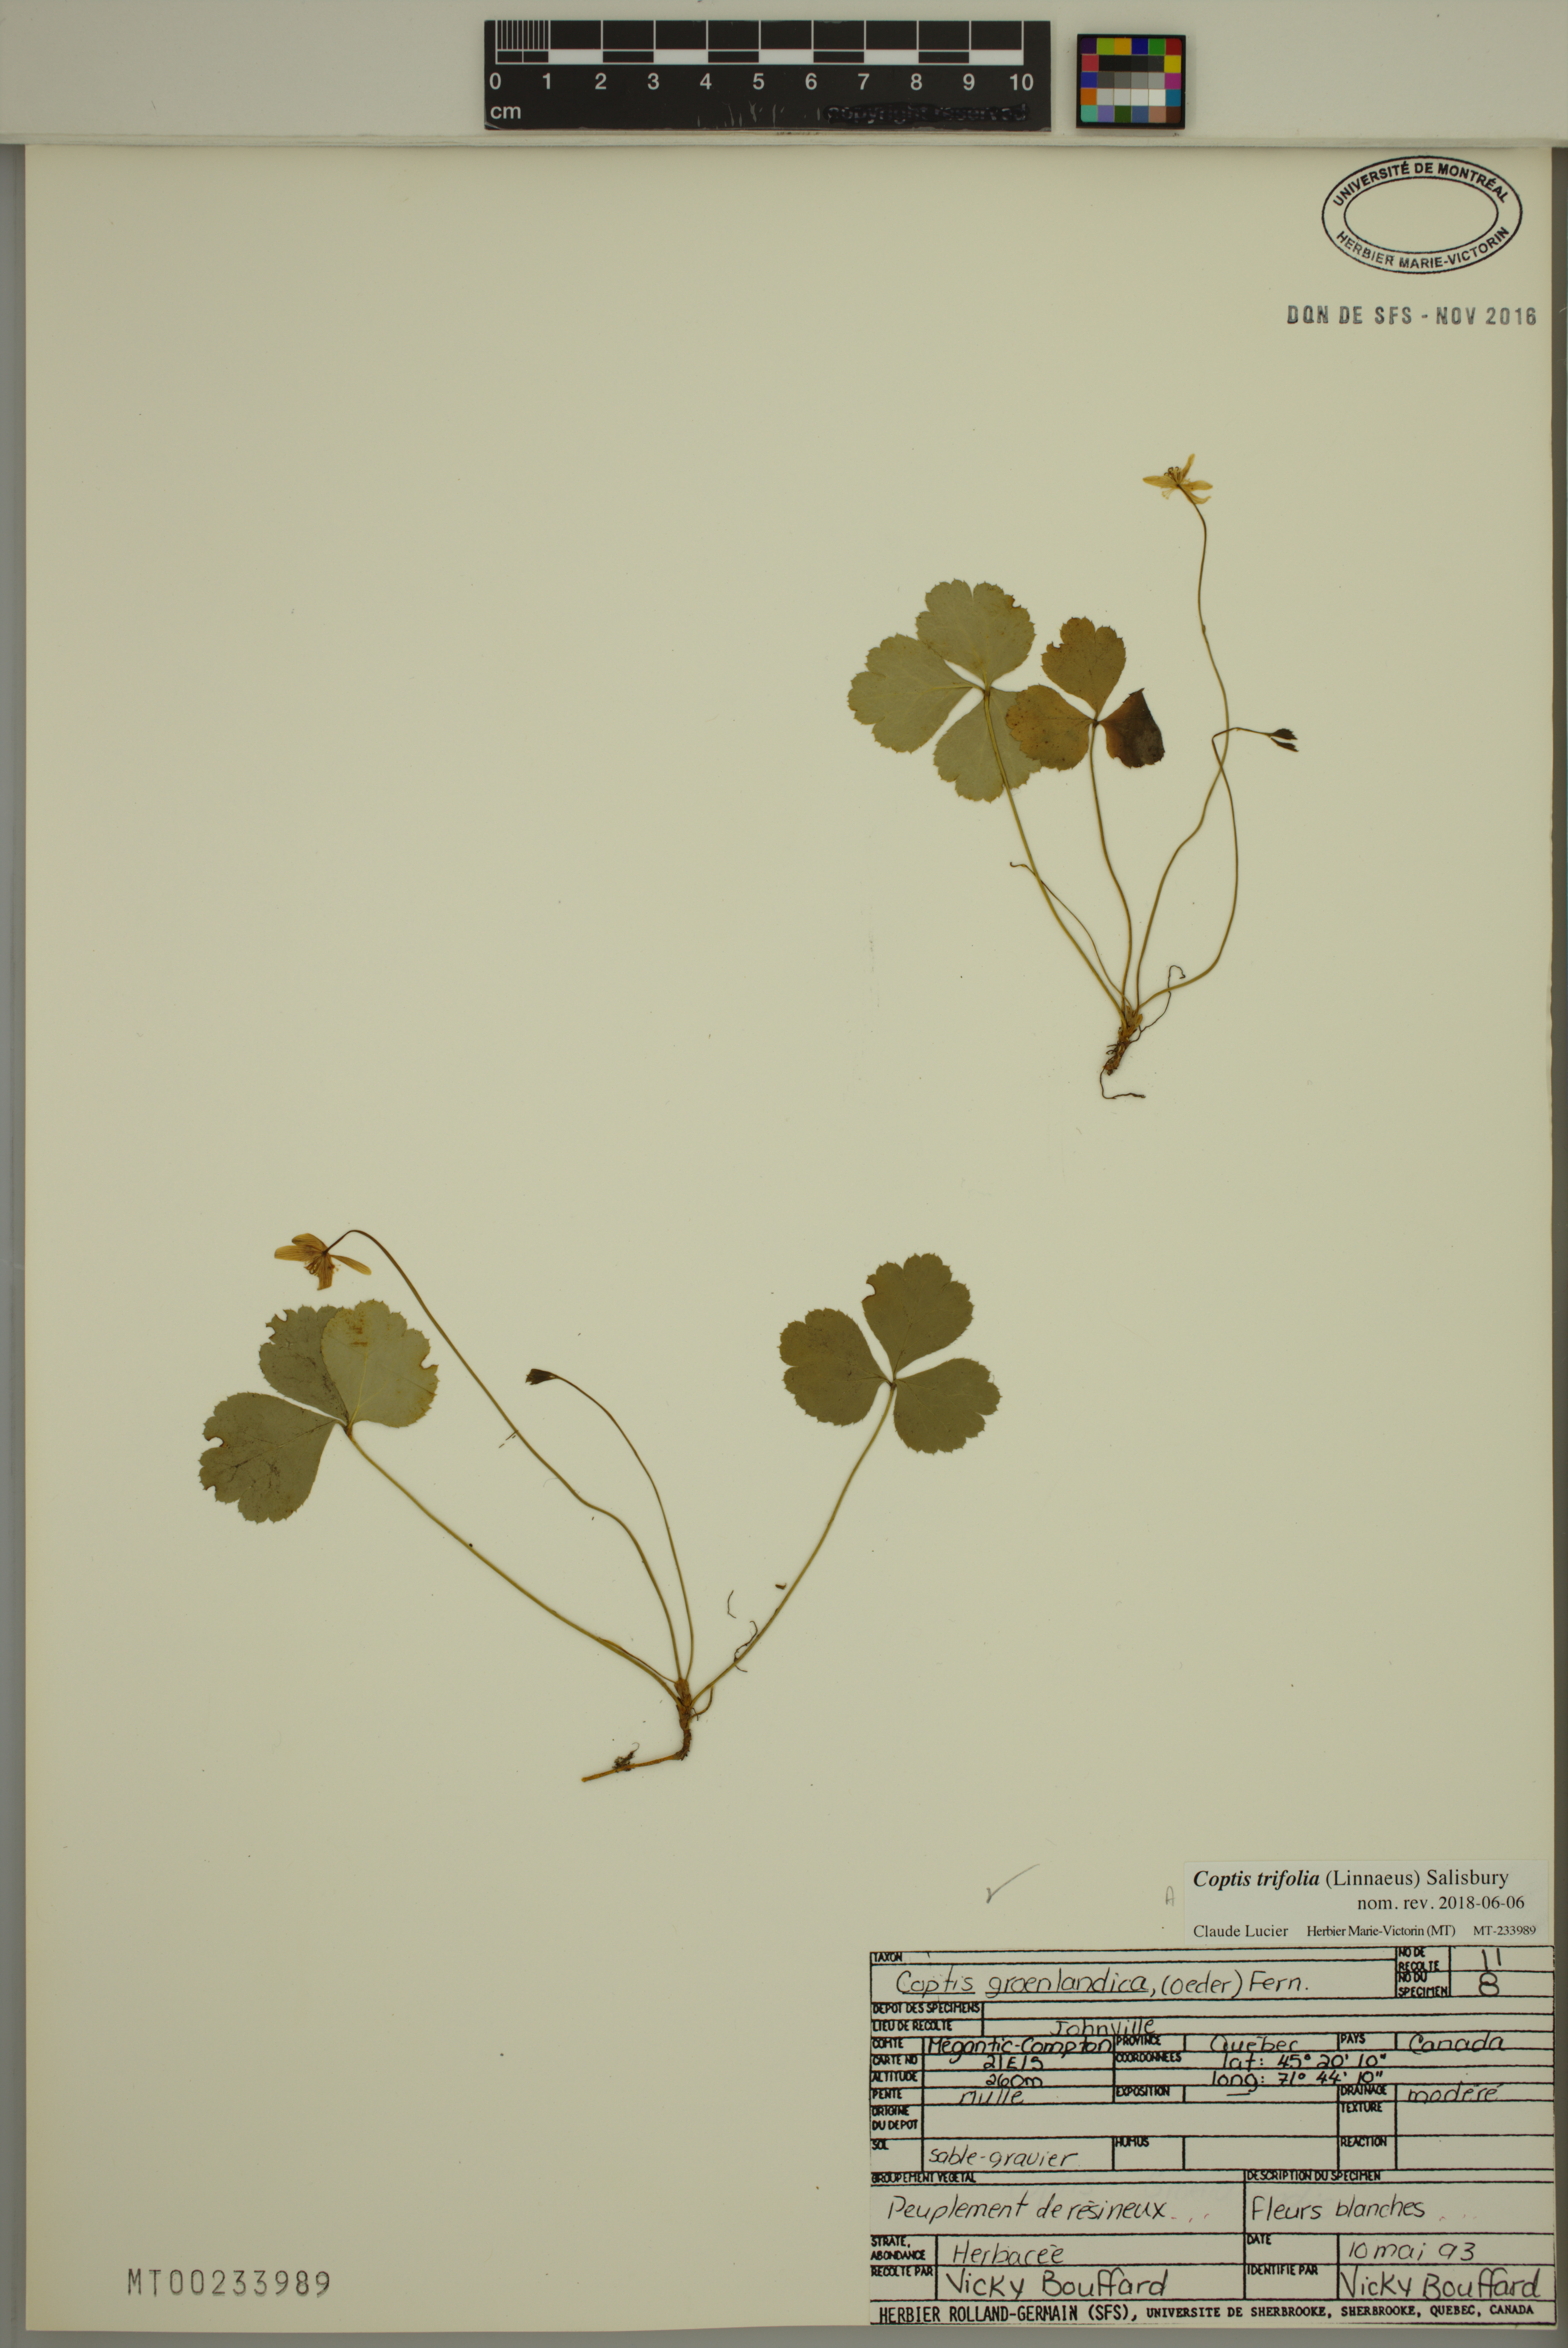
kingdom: Plantae
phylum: Tracheophyta
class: Magnoliopsida
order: Ranunculales
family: Ranunculaceae
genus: Coptis
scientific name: Coptis trifolia
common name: Canker-root
